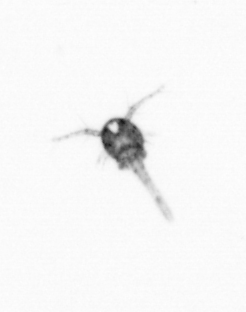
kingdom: Animalia
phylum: Arthropoda
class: Copepoda
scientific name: Copepoda
